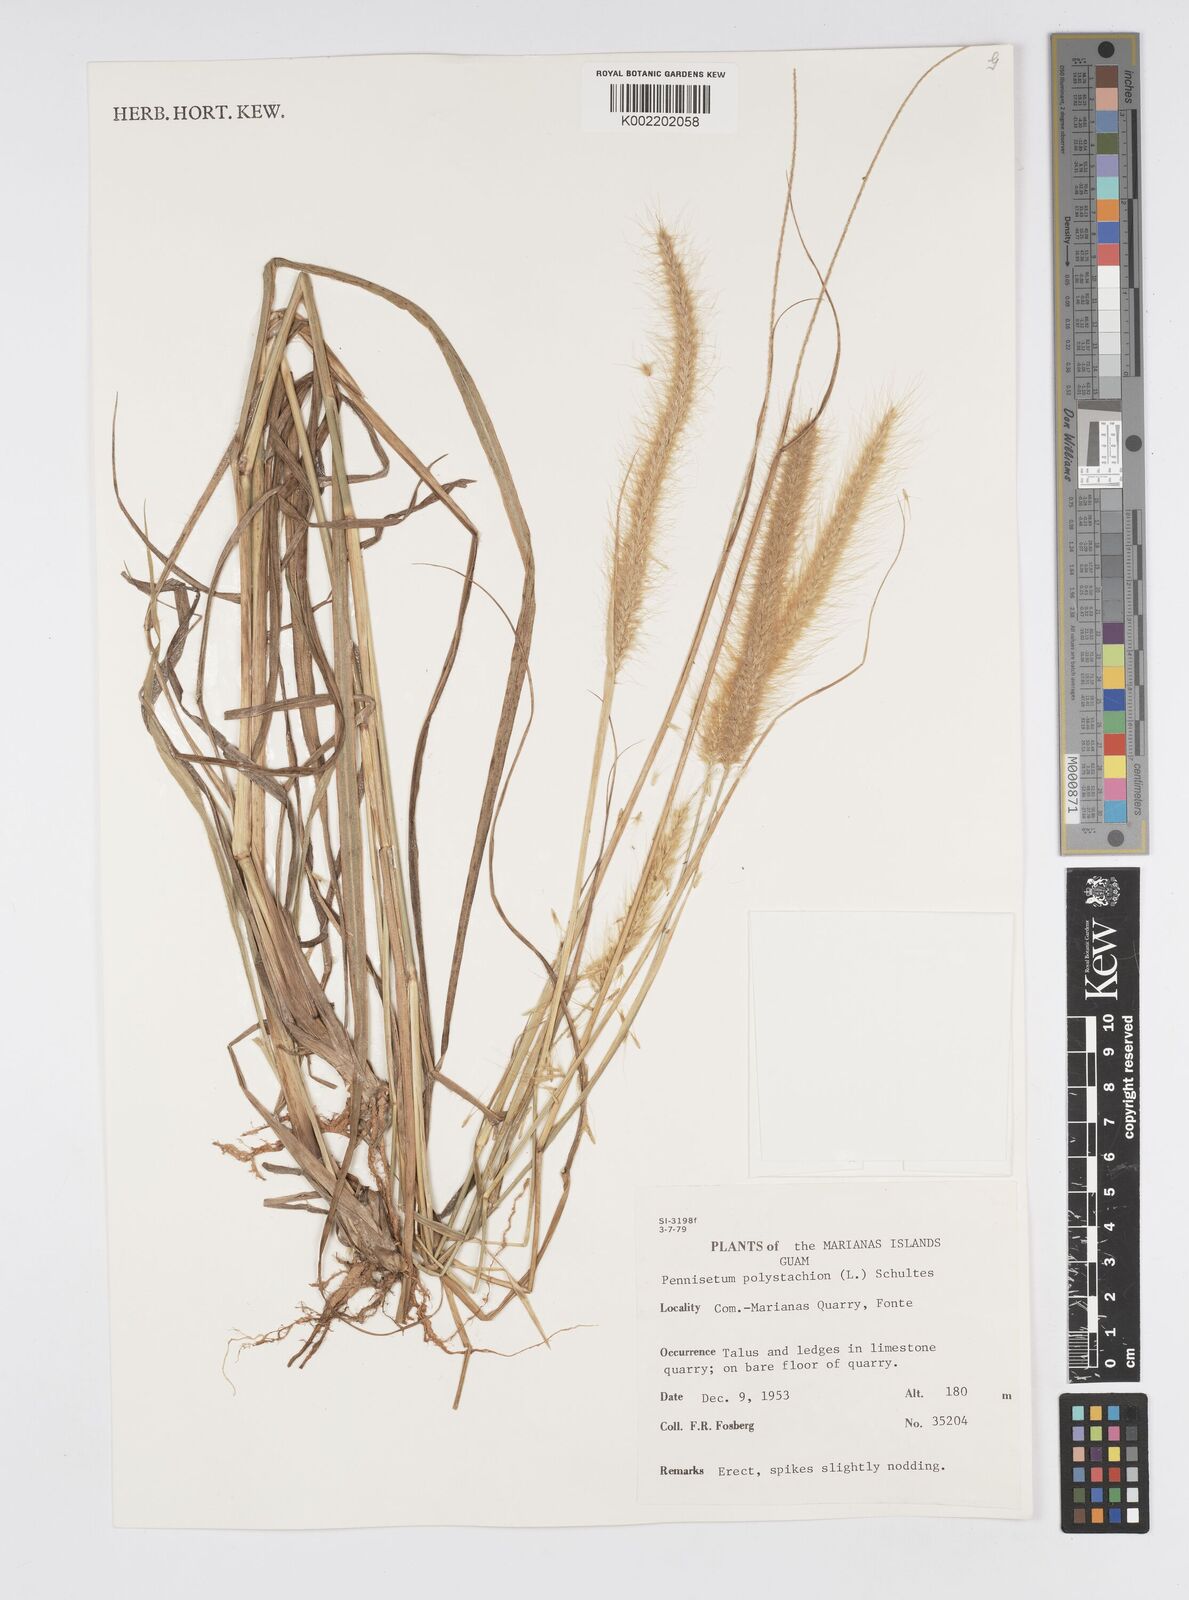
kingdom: Plantae
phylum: Tracheophyta
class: Liliopsida
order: Poales
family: Poaceae
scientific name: Poaceae
